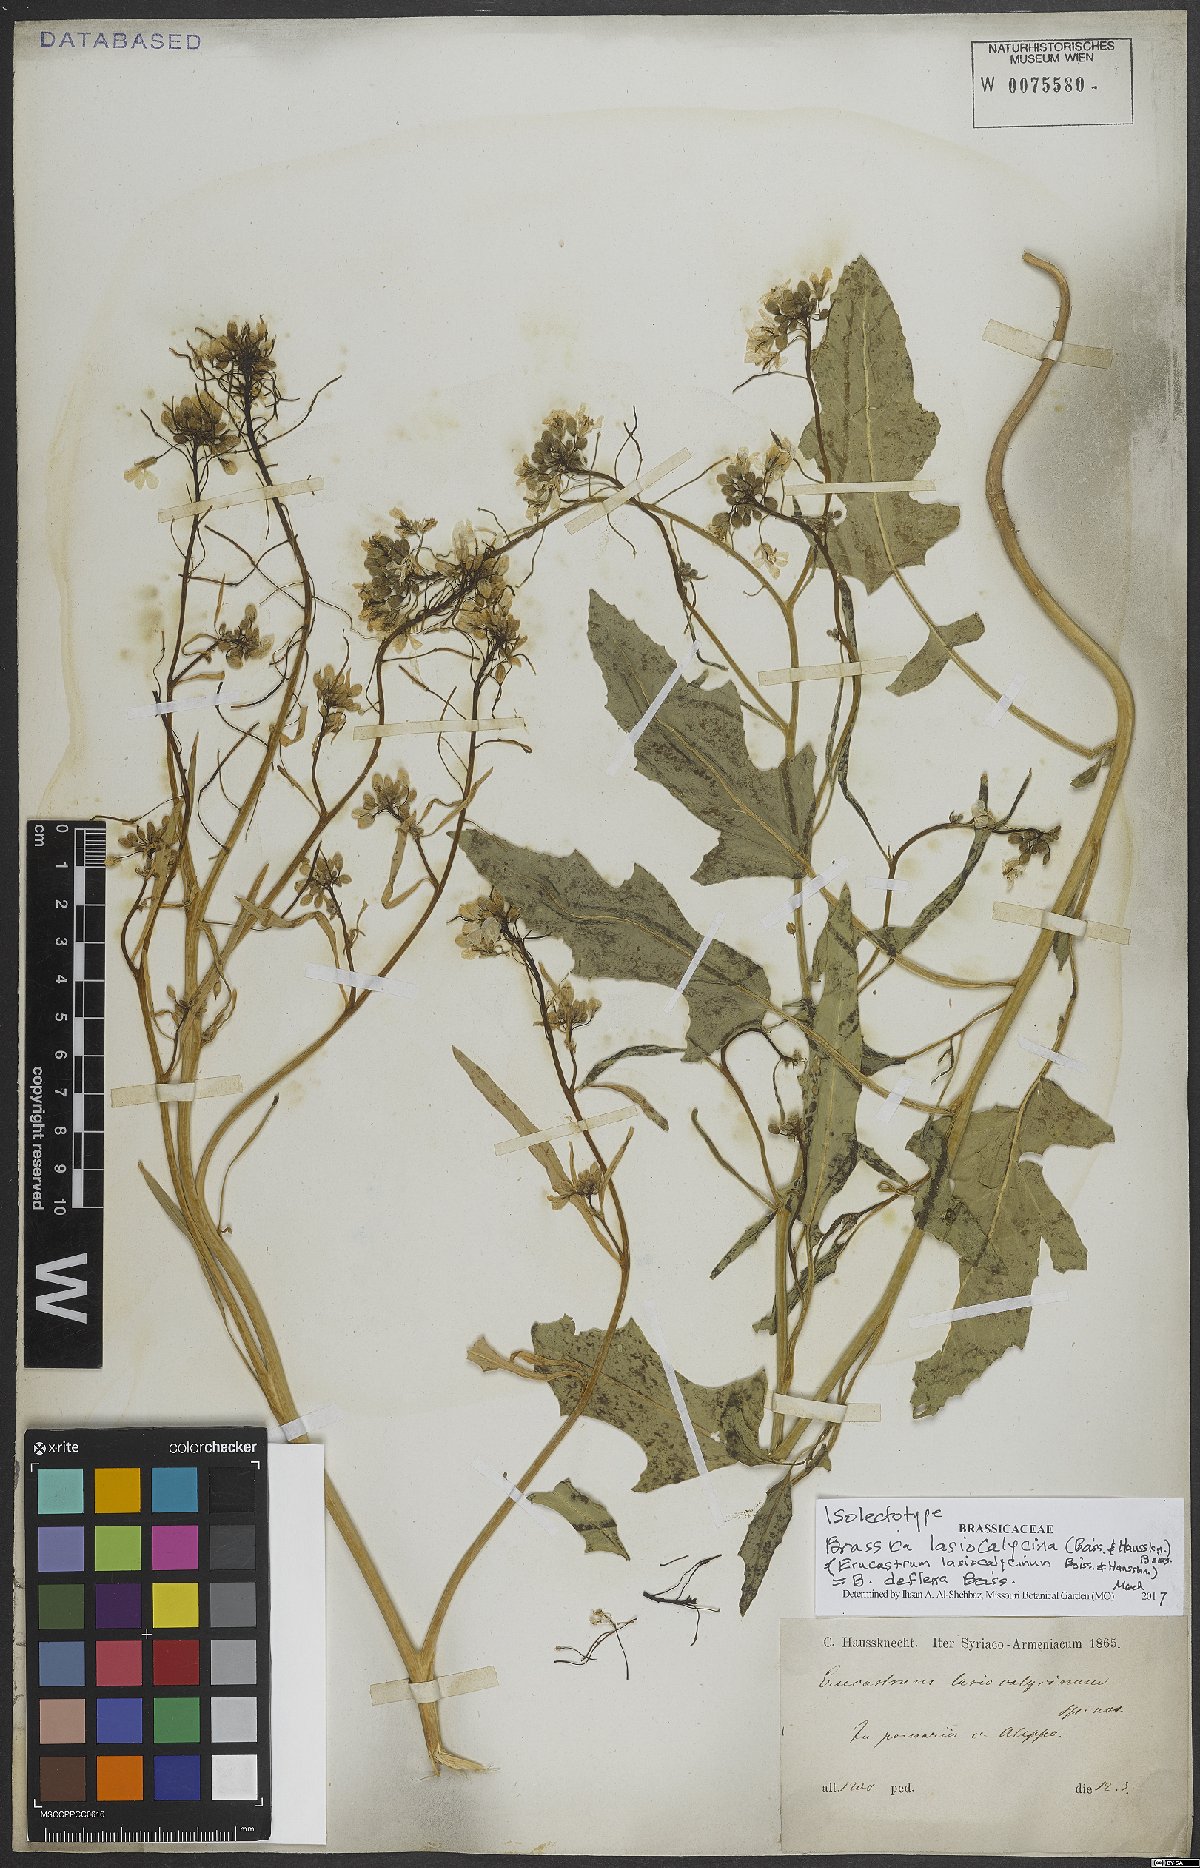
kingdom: Plantae
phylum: Tracheophyta
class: Magnoliopsida
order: Brassicales
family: Brassicaceae
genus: Brassica
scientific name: Brassica deflexa
